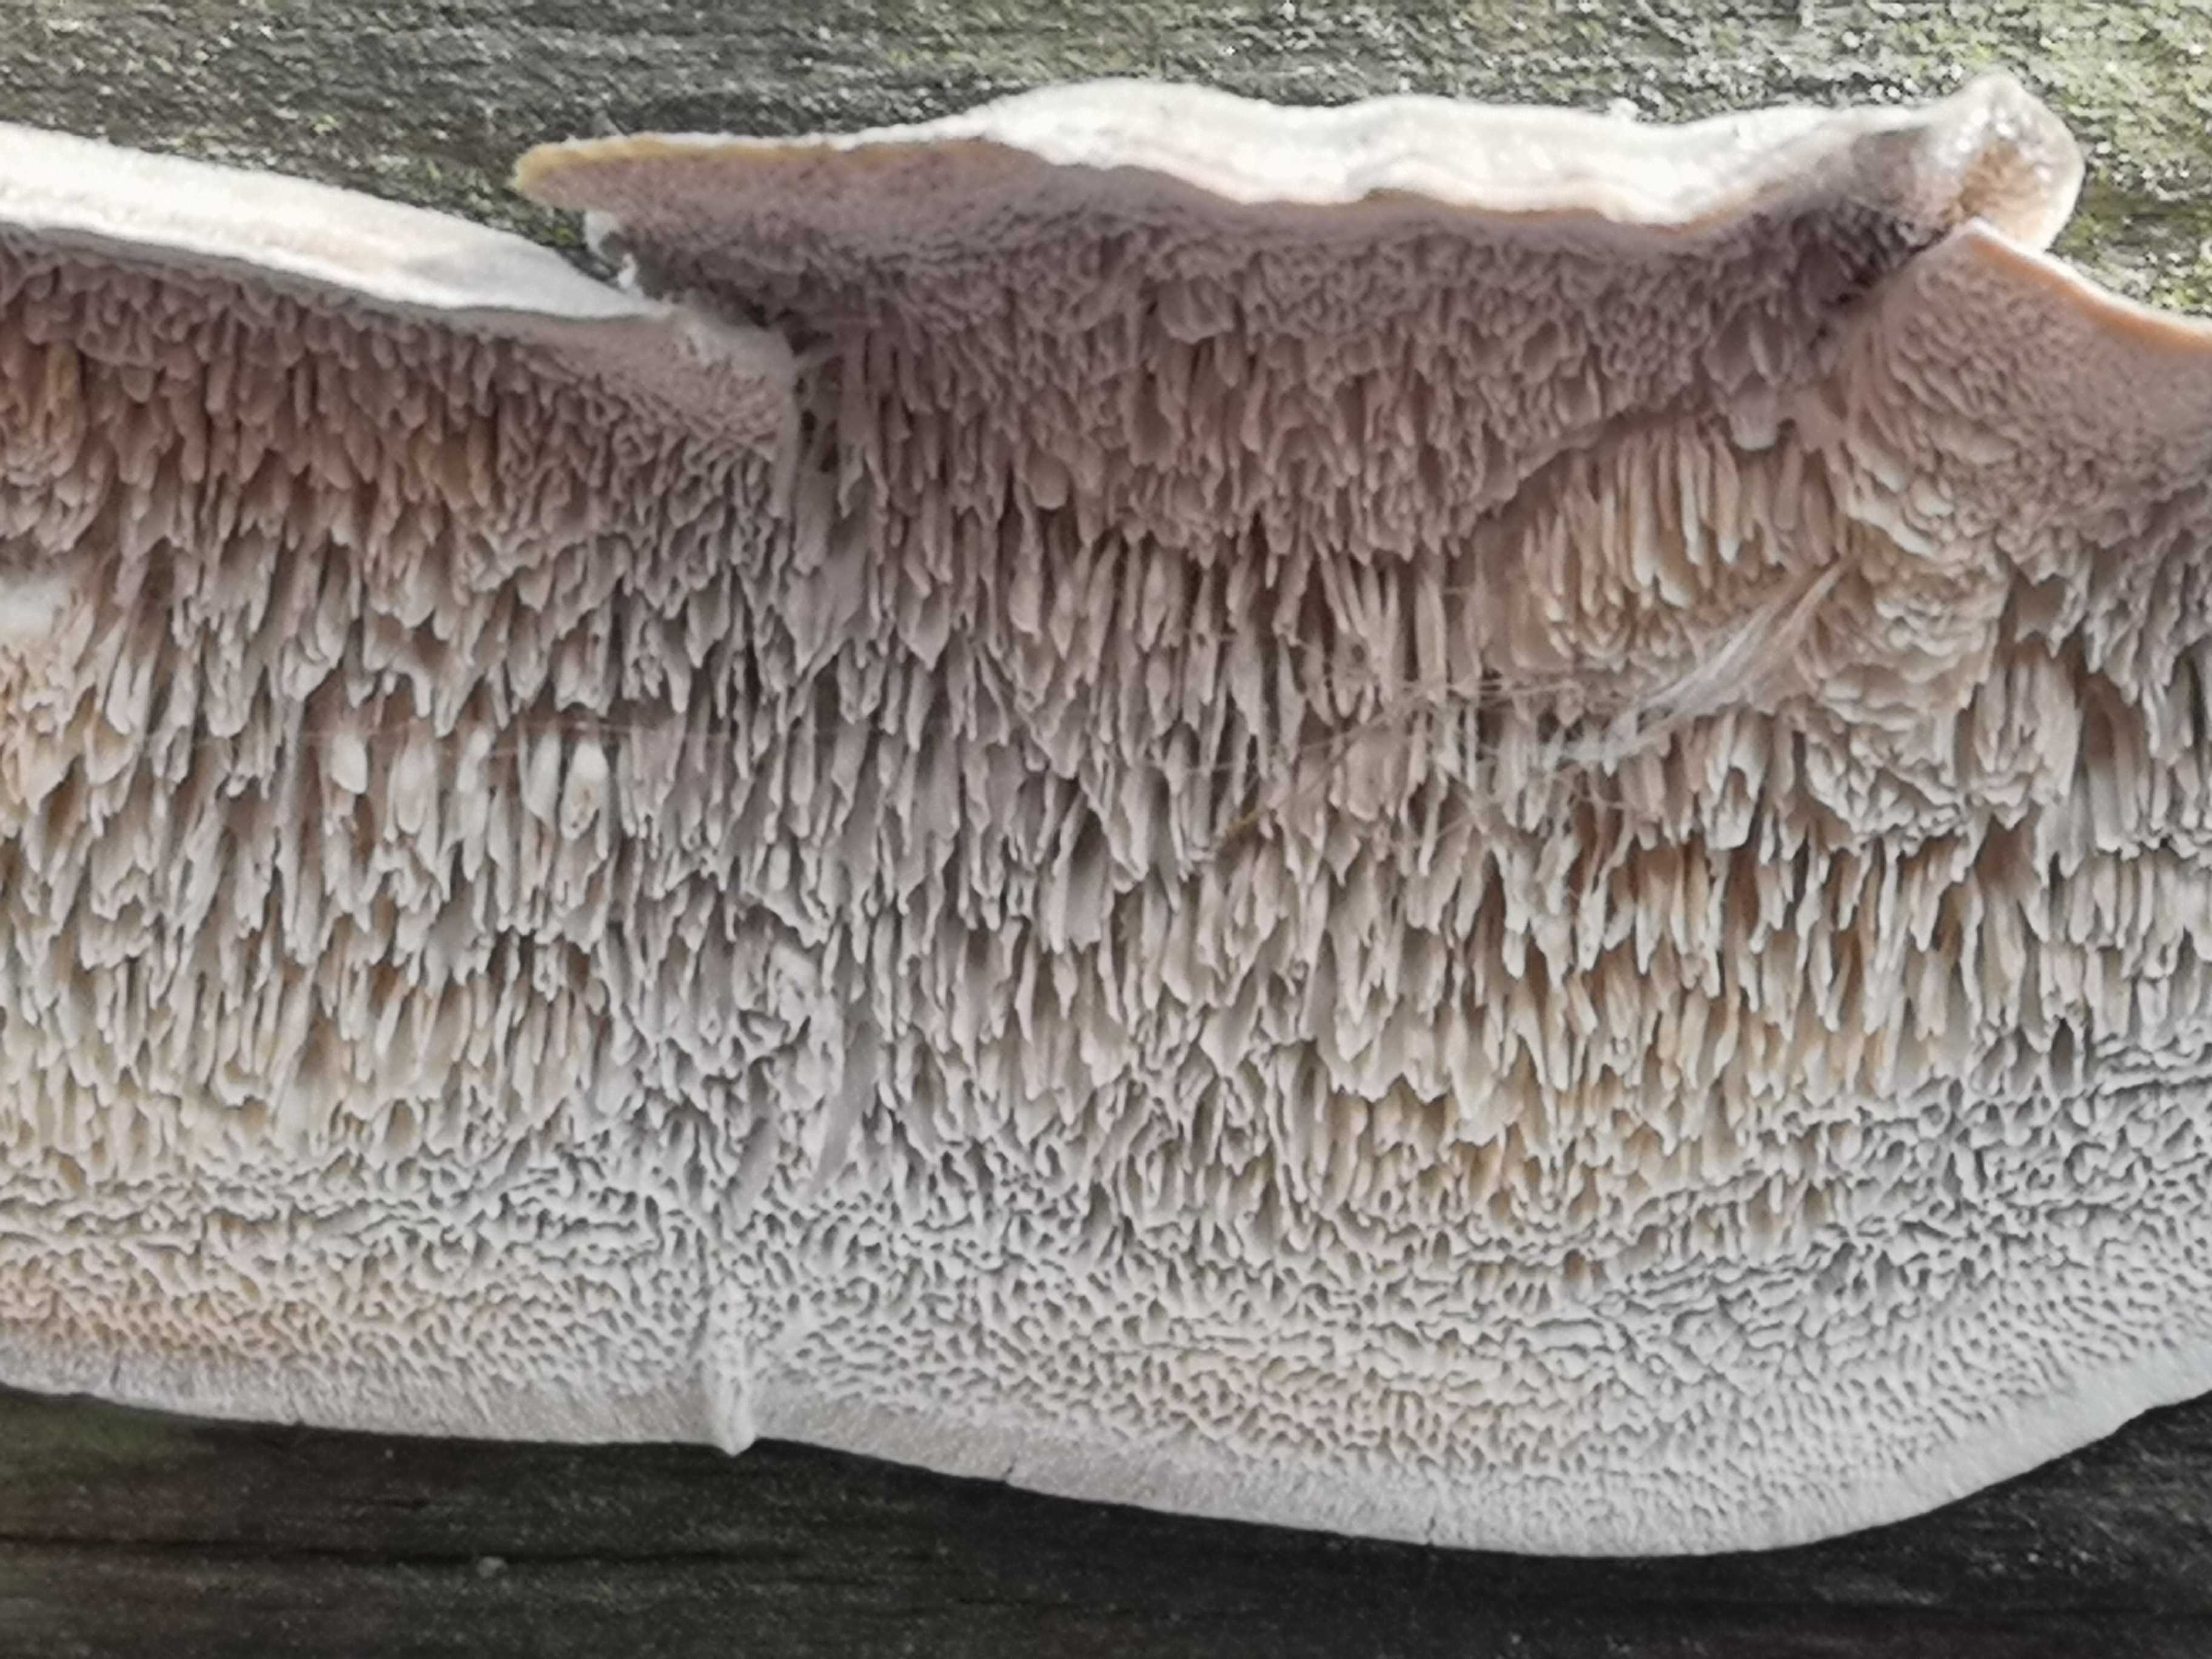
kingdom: Fungi
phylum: Basidiomycota
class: Agaricomycetes
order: Polyporales
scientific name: Polyporales
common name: poresvampordenen
